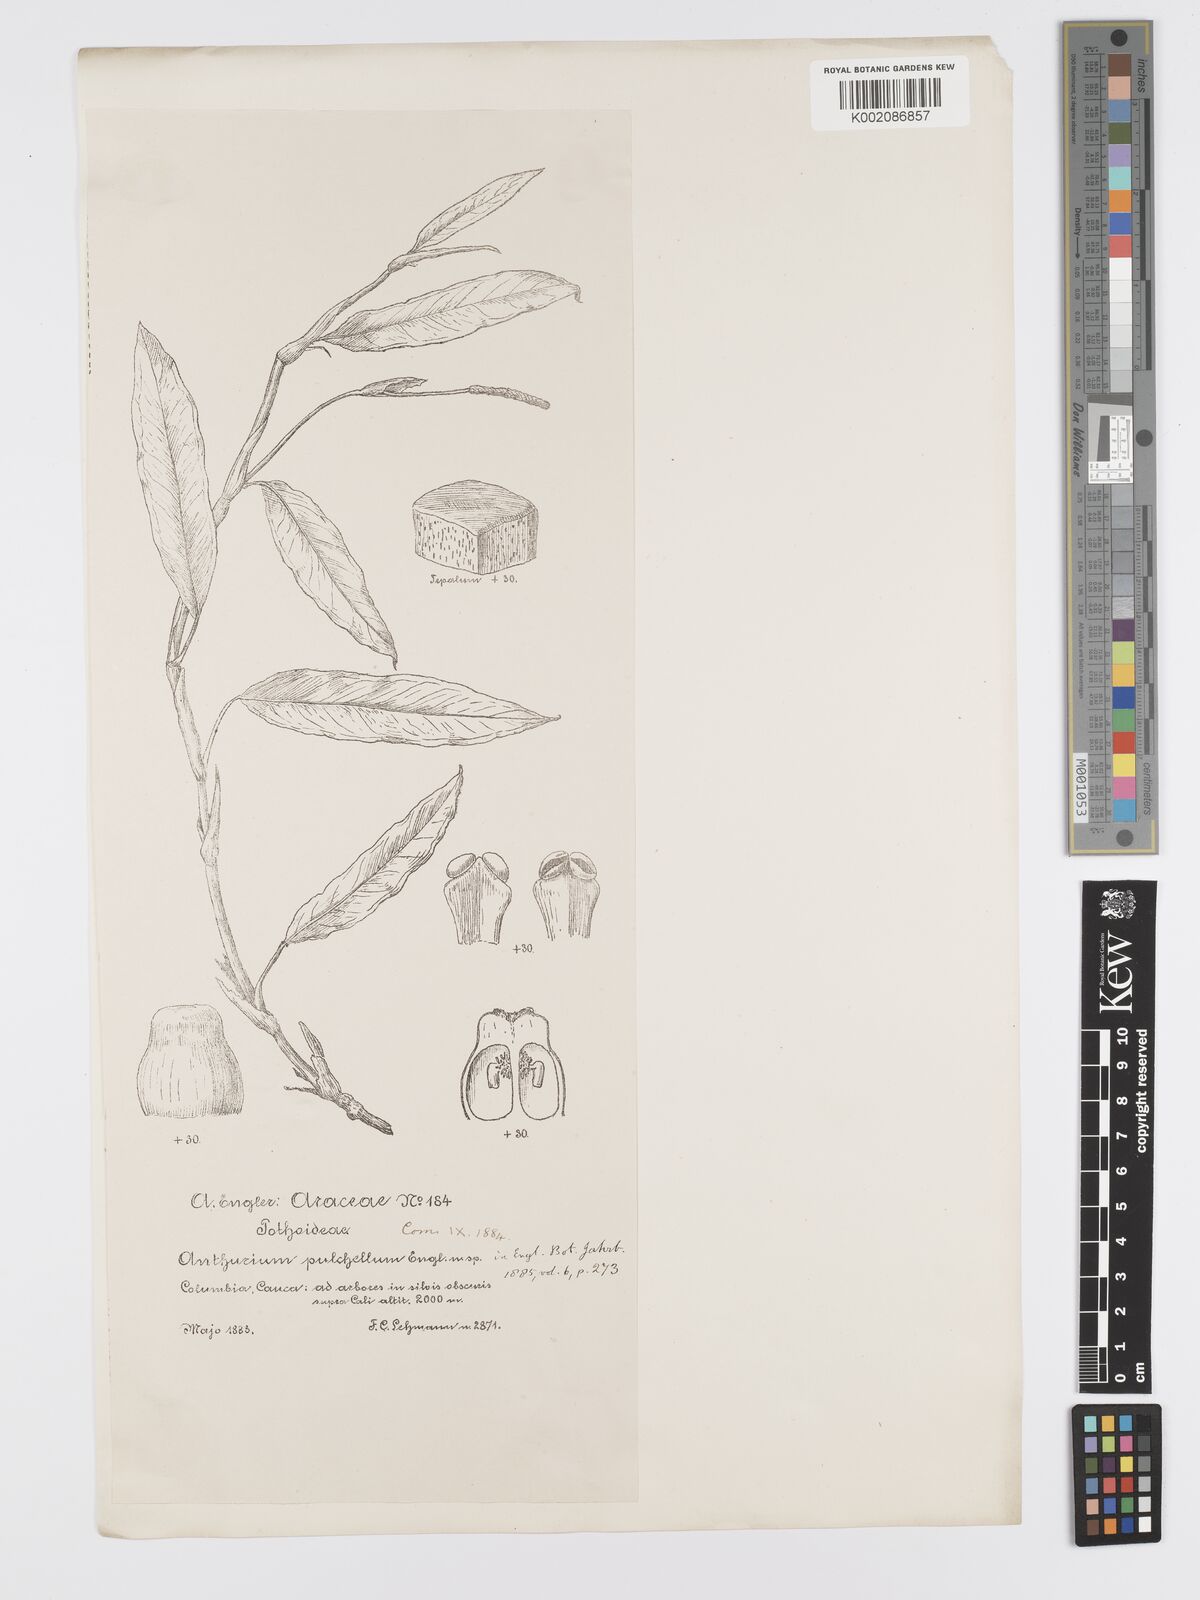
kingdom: Plantae
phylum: Tracheophyta
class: Liliopsida
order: Alismatales
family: Araceae
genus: Anthurium
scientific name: Anthurium pulchellum
